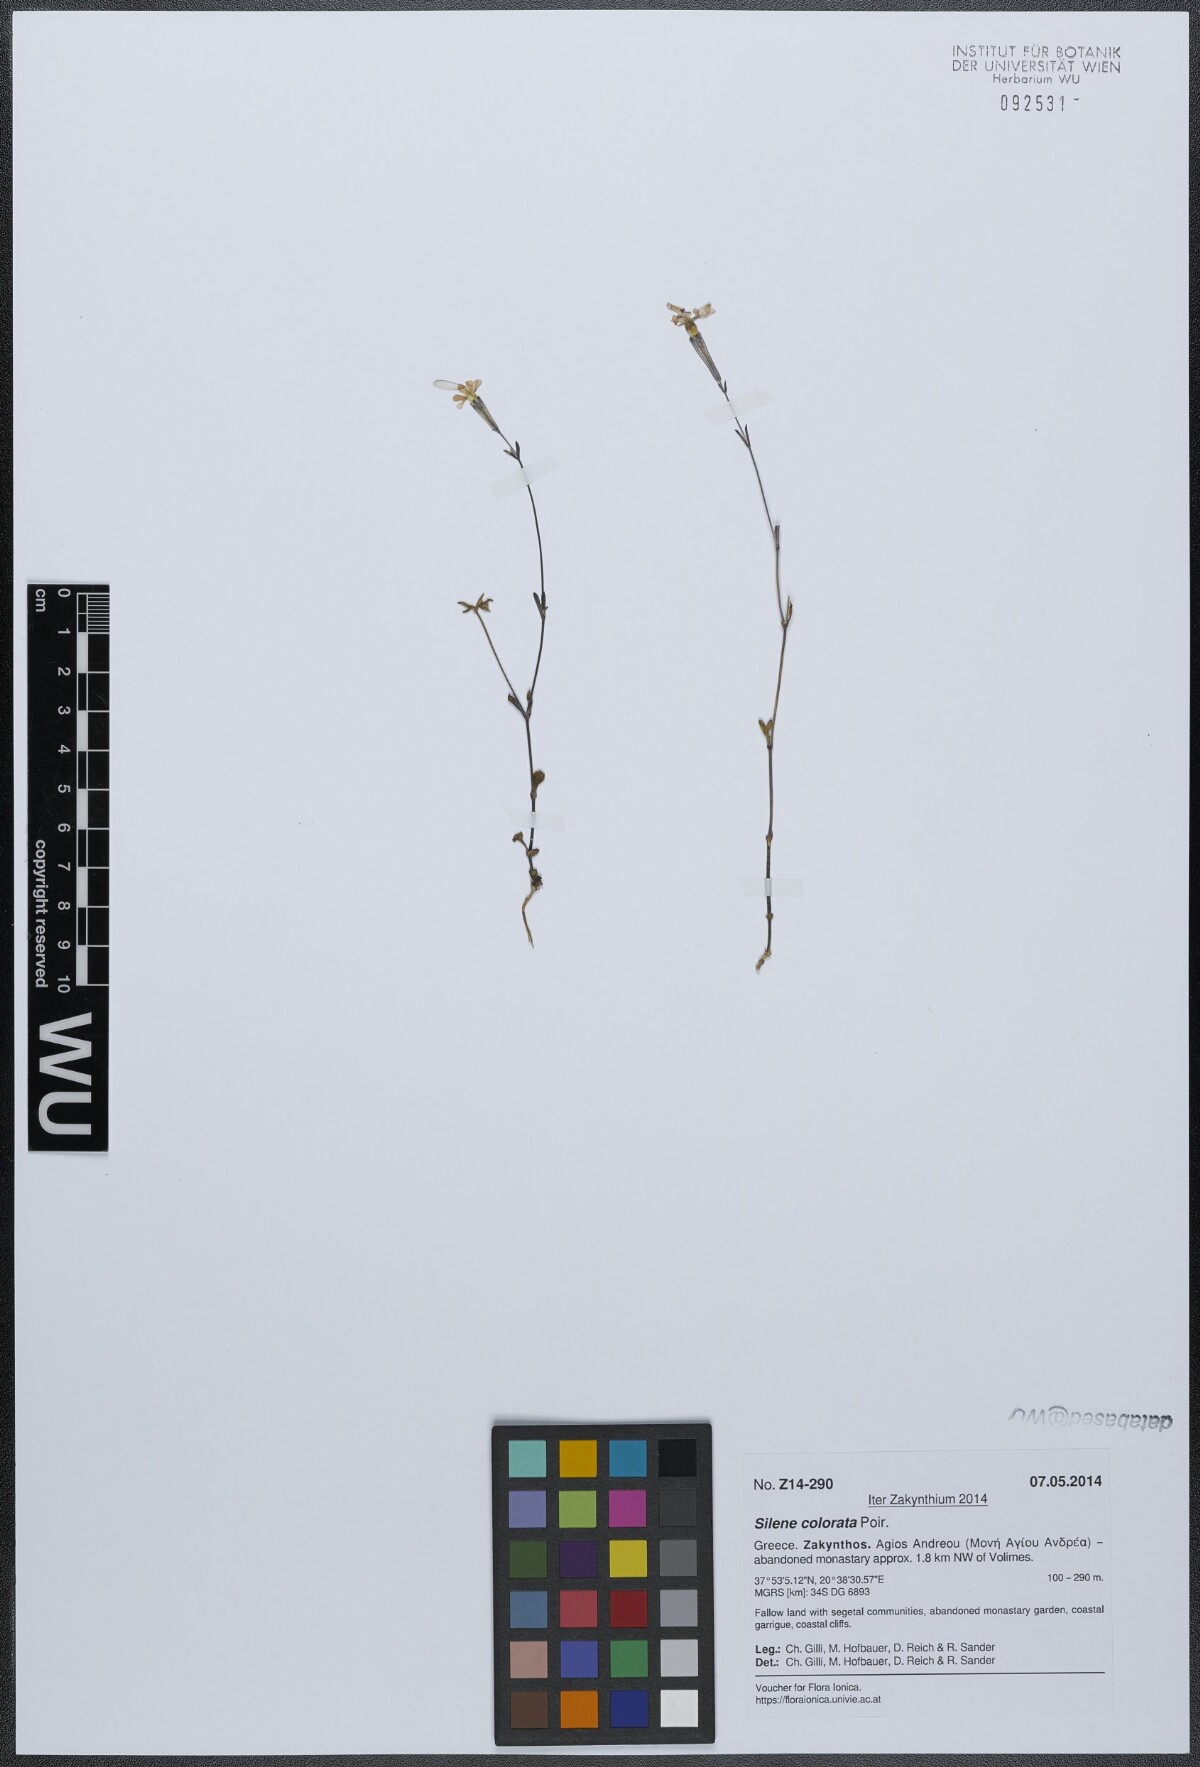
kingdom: Plantae
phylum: Tracheophyta
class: Magnoliopsida
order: Caryophyllales
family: Caryophyllaceae
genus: Silene
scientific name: Silene colorata
